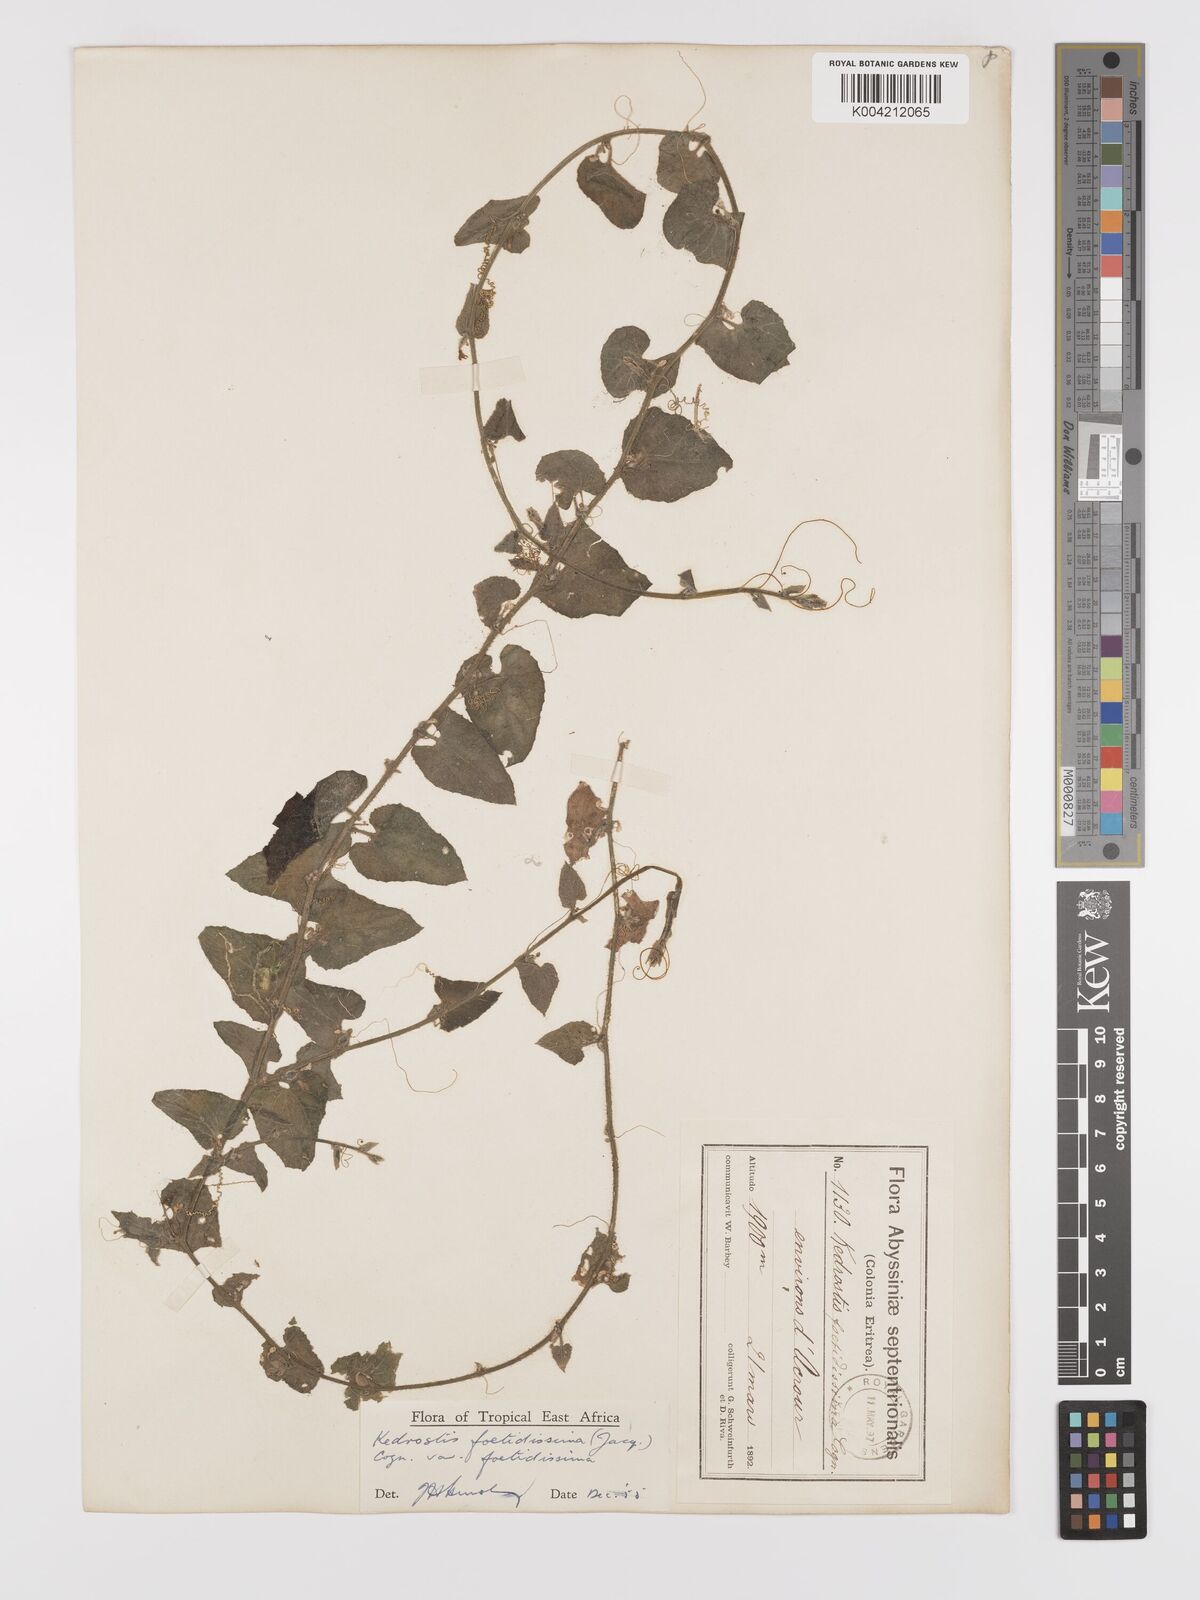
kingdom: Plantae
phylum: Tracheophyta
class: Magnoliopsida
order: Cucurbitales
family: Cucurbitaceae
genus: Kedrostis
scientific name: Kedrostis foetidissima
